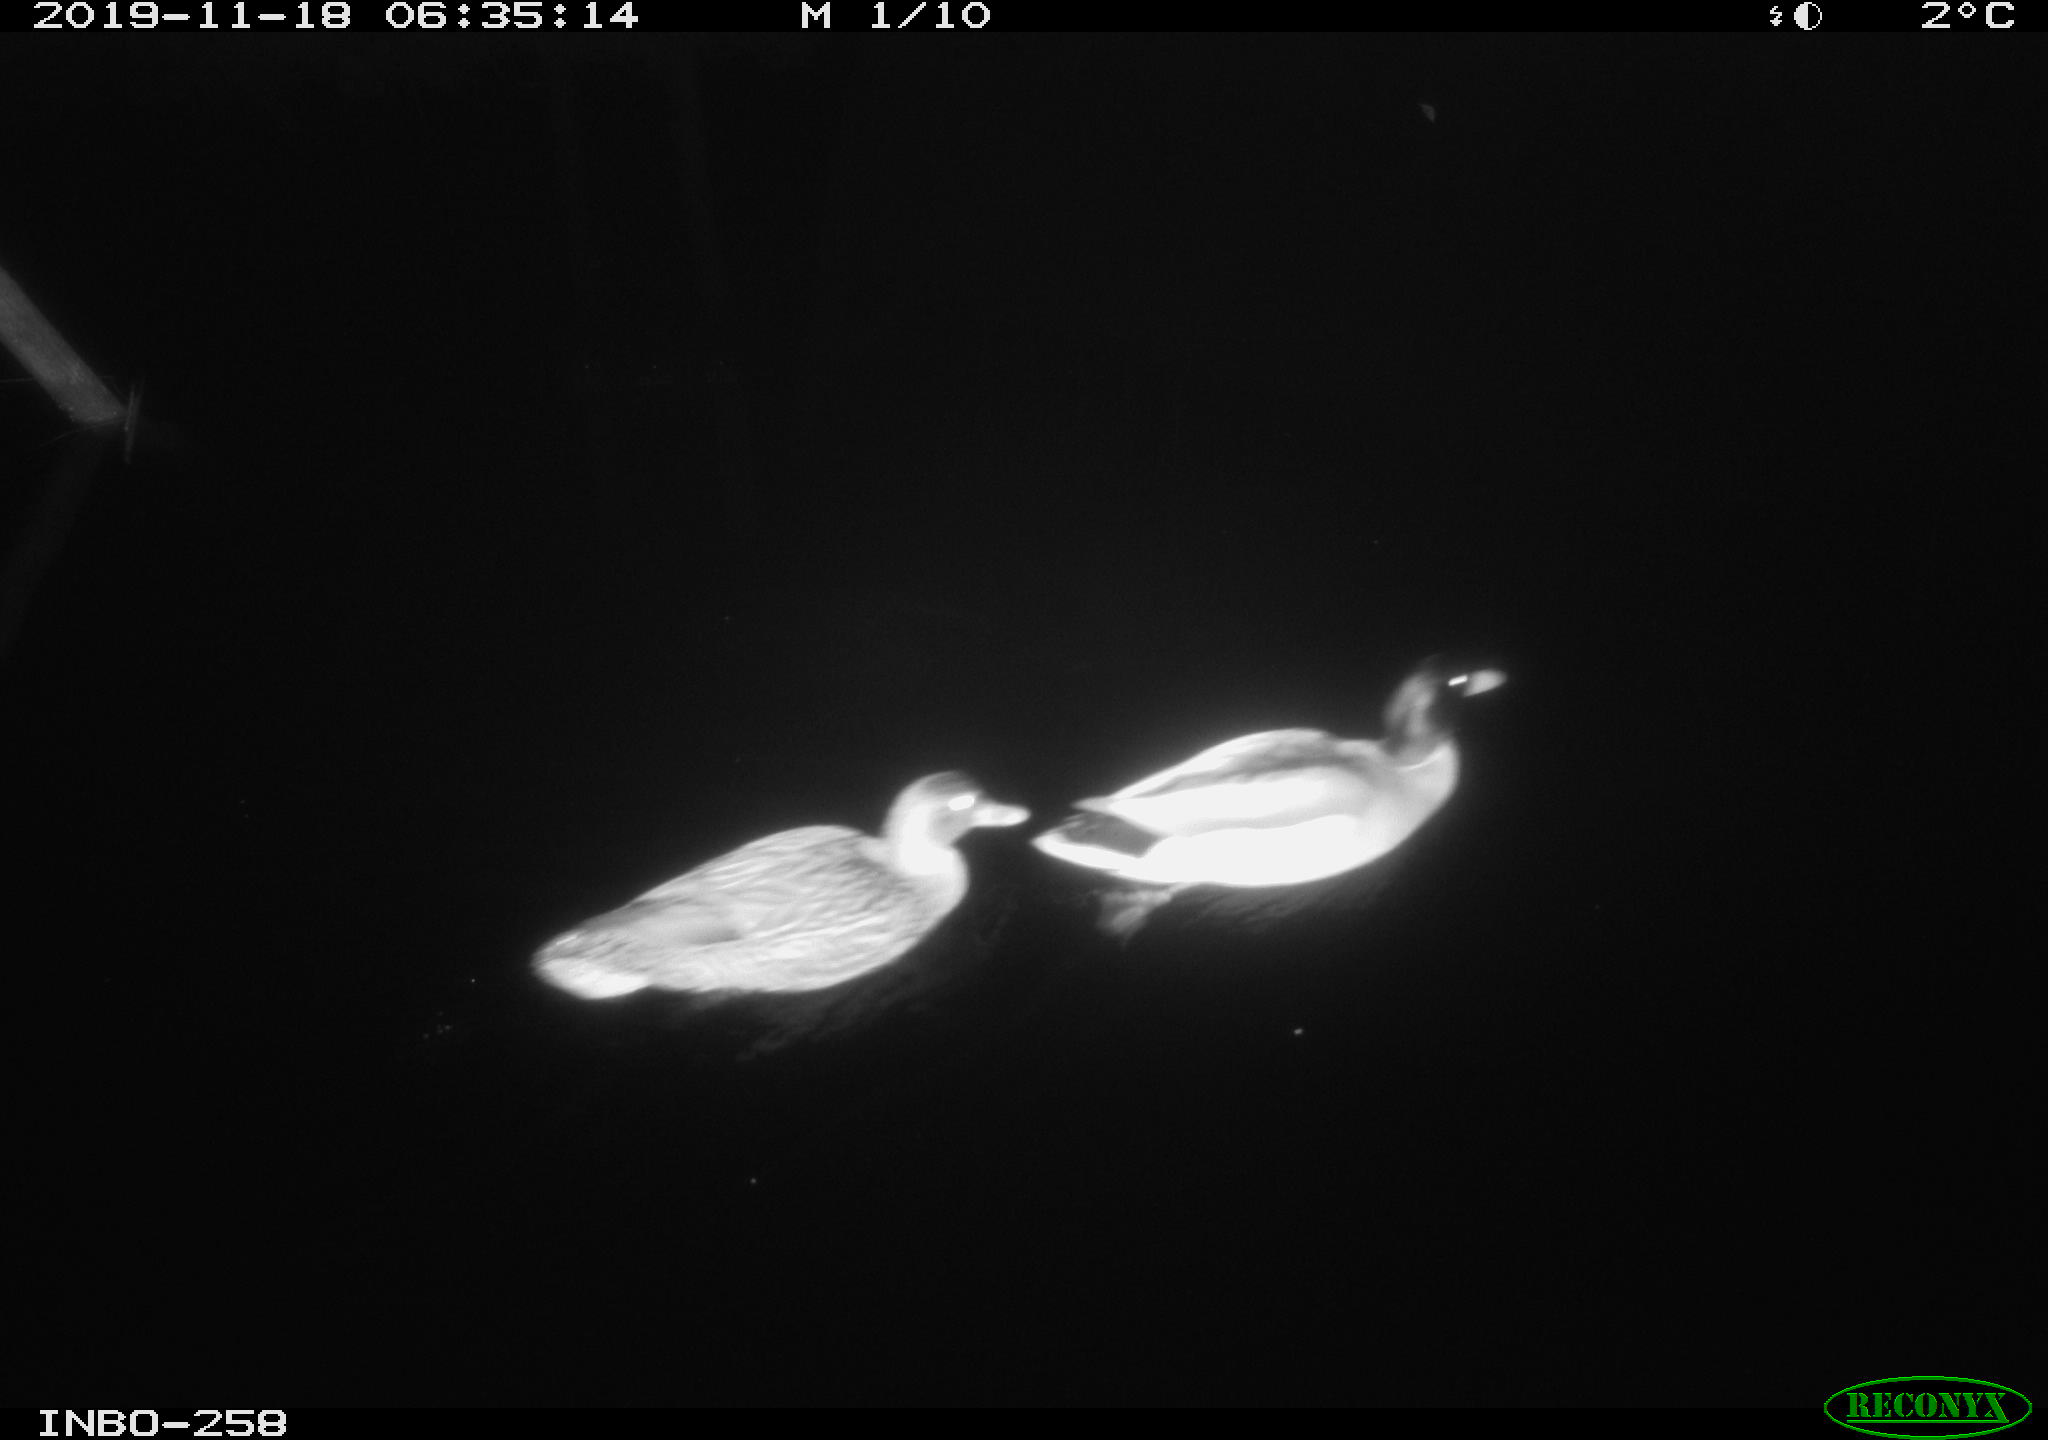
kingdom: Animalia
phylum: Chordata
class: Aves
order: Anseriformes
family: Anatidae
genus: Anas
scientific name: Anas platyrhynchos
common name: Mallard
